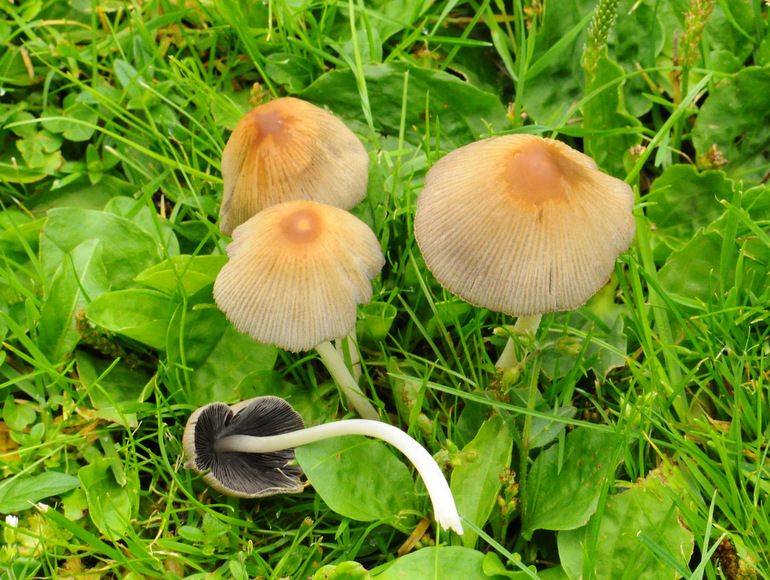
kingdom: Fungi
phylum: Basidiomycota
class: Agaricomycetes
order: Agaricales
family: Psathyrellaceae
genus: Coprinellus
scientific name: Coprinellus micaceus
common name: glimmer-blækhat
